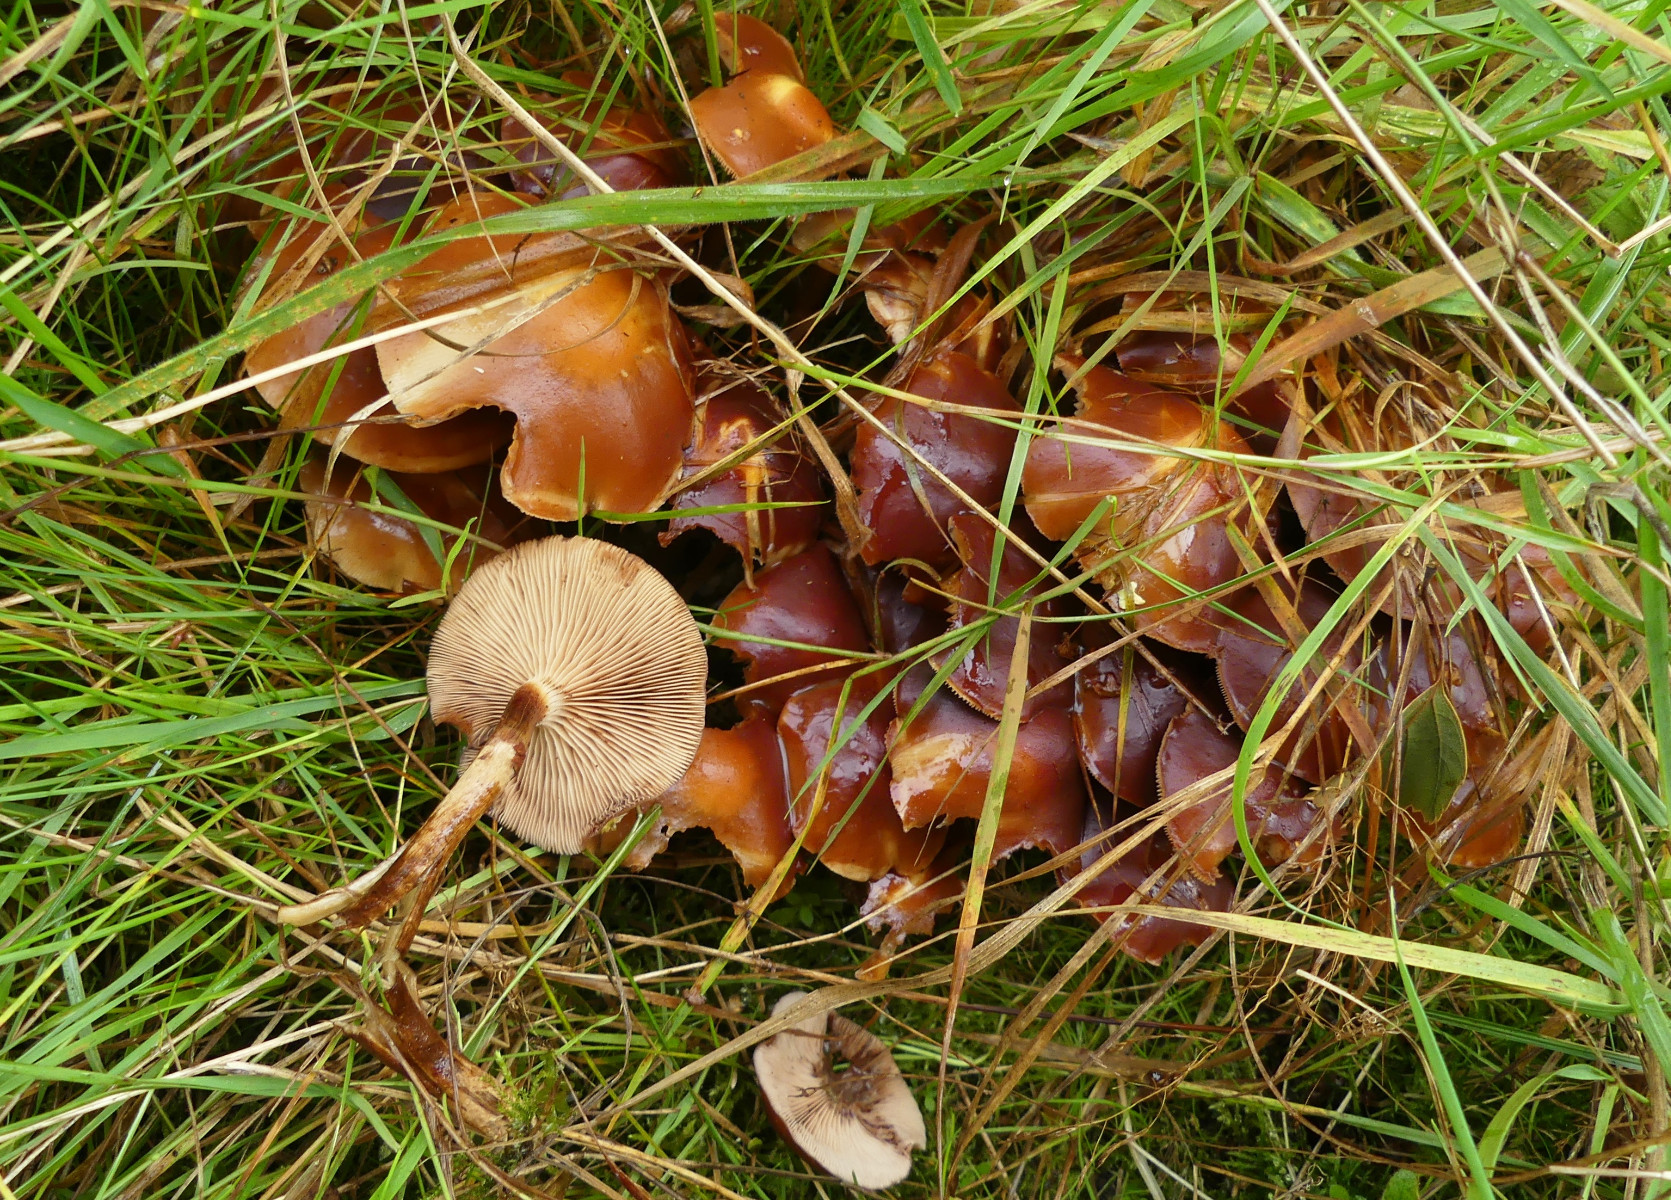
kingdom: Fungi
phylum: Basidiomycota
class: Agaricomycetes
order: Agaricales
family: Strophariaceae
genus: Kuehneromyces
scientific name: Kuehneromyces mutabilis
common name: foranderlig skælhat
